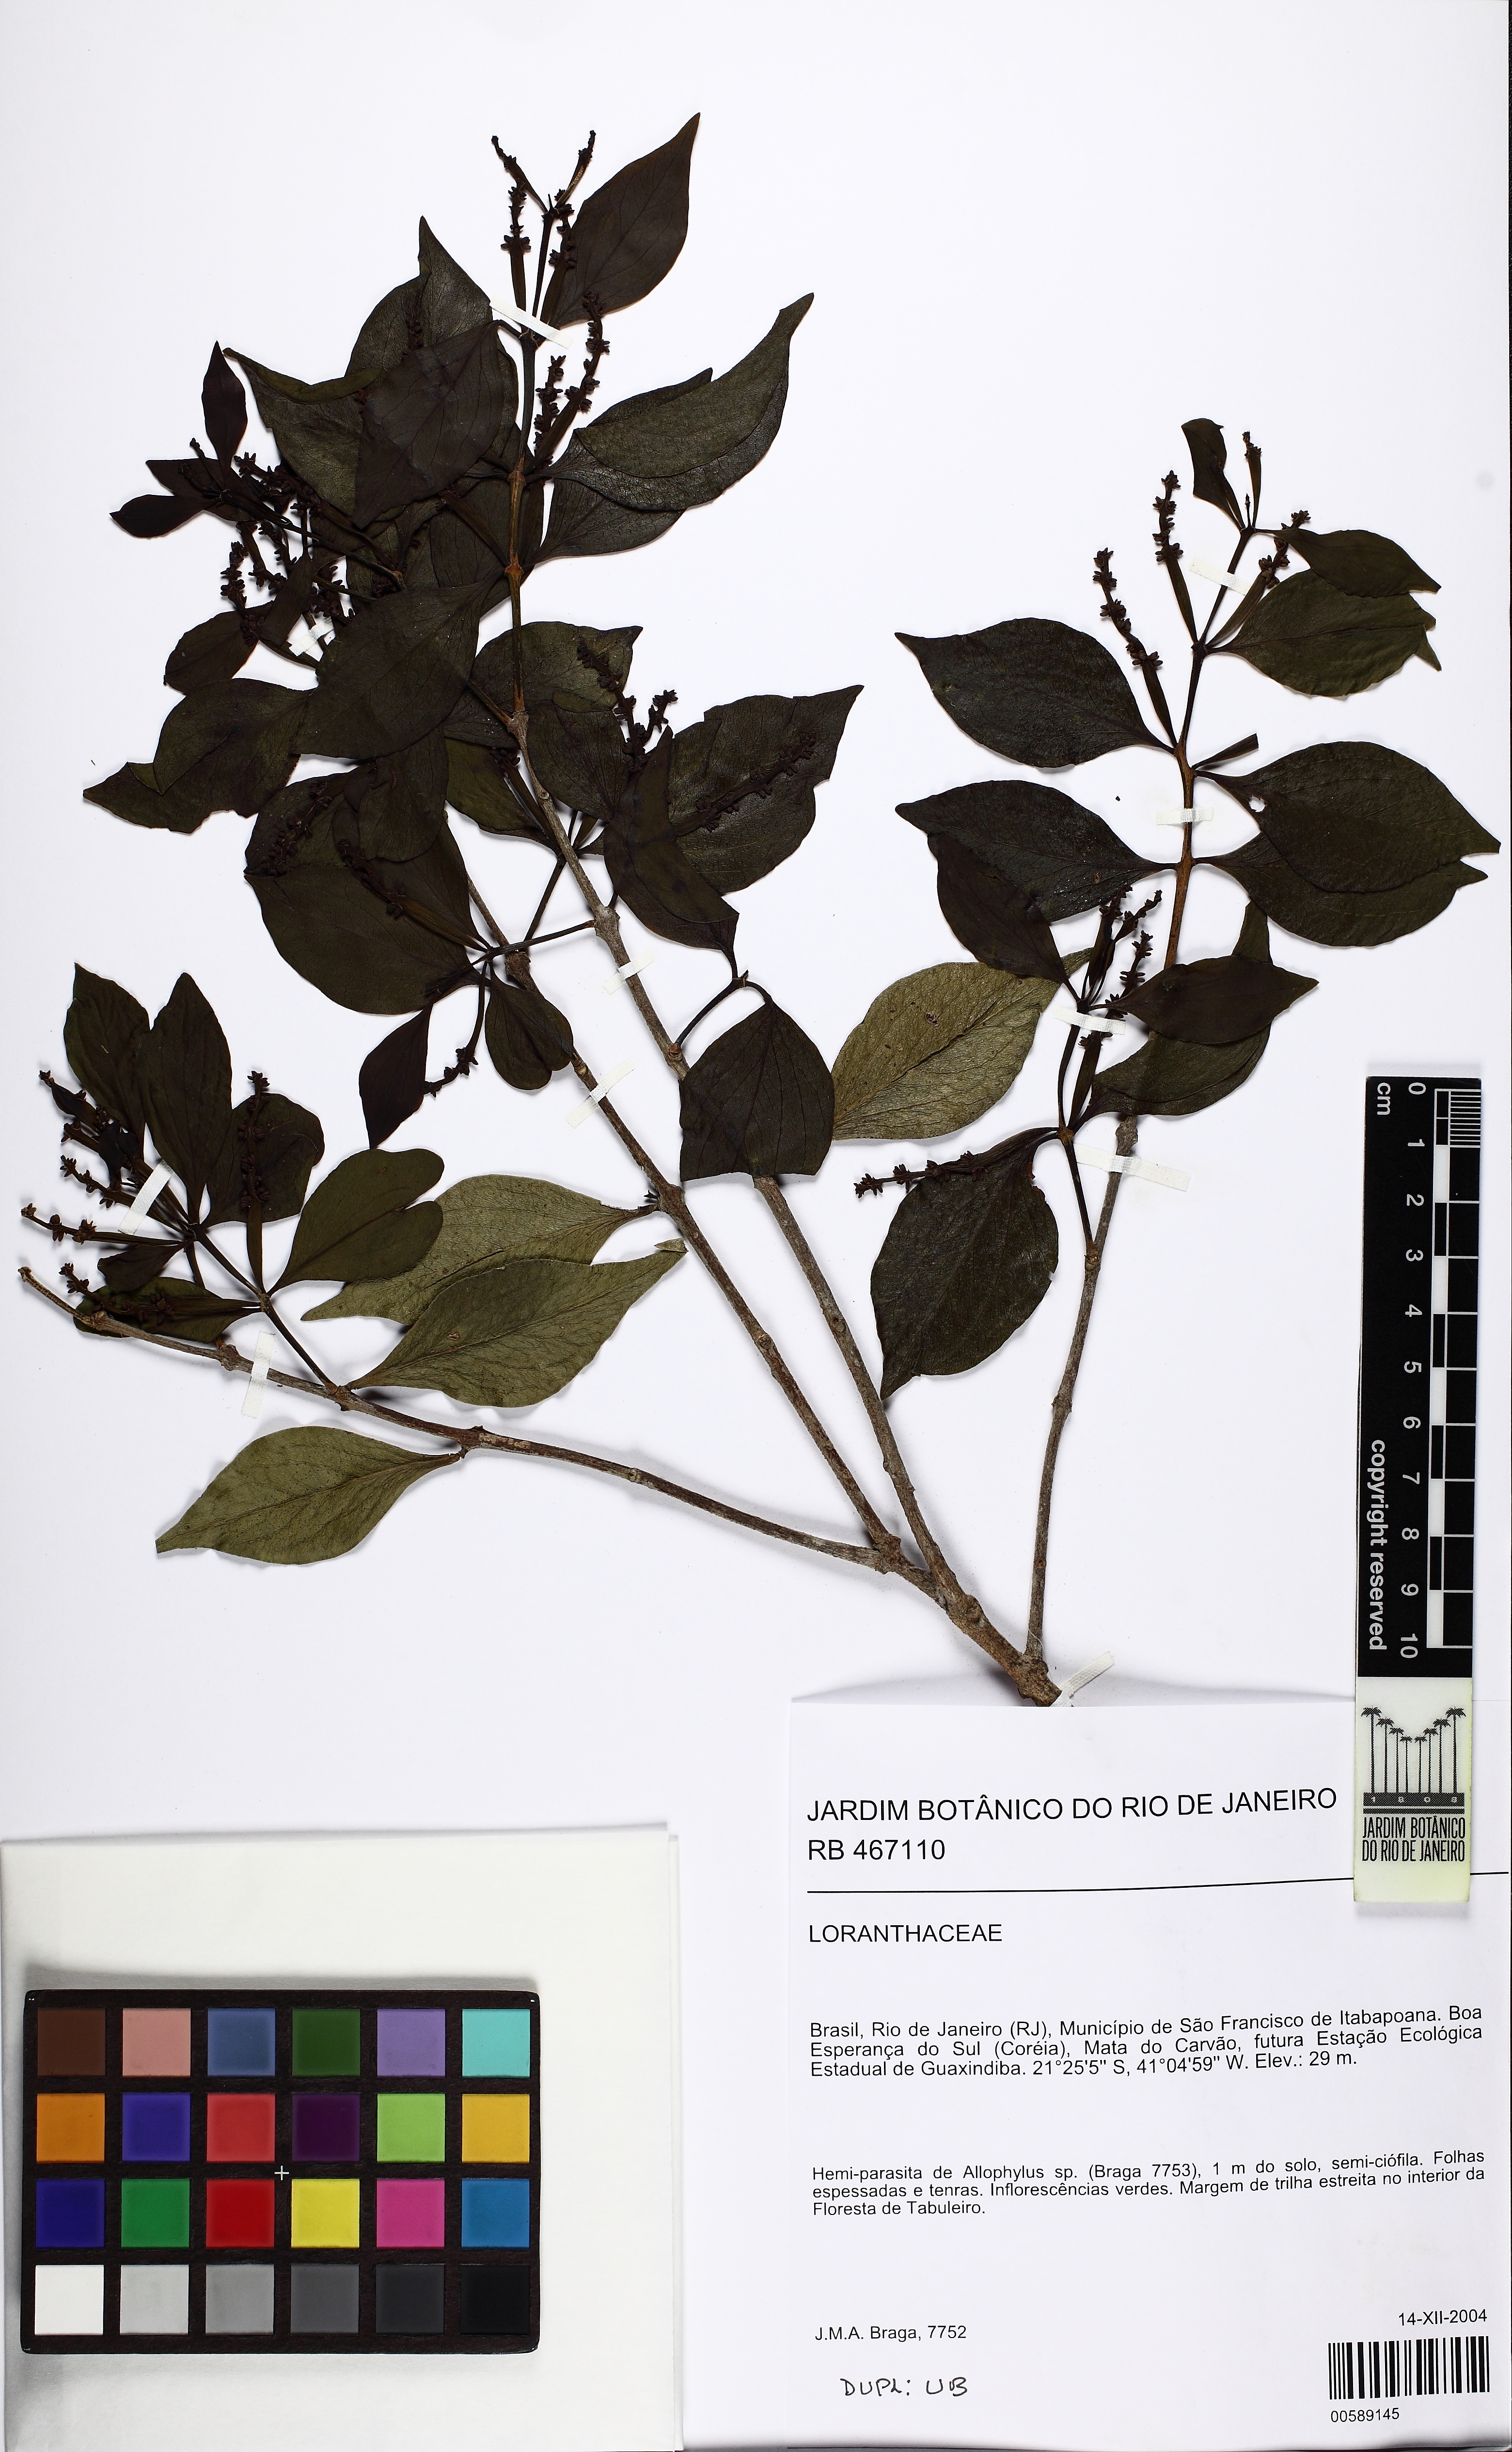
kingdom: Plantae
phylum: Tracheophyta
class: Magnoliopsida
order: Santalales
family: Loranthaceae
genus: Passovia
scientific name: Passovia podoptera
